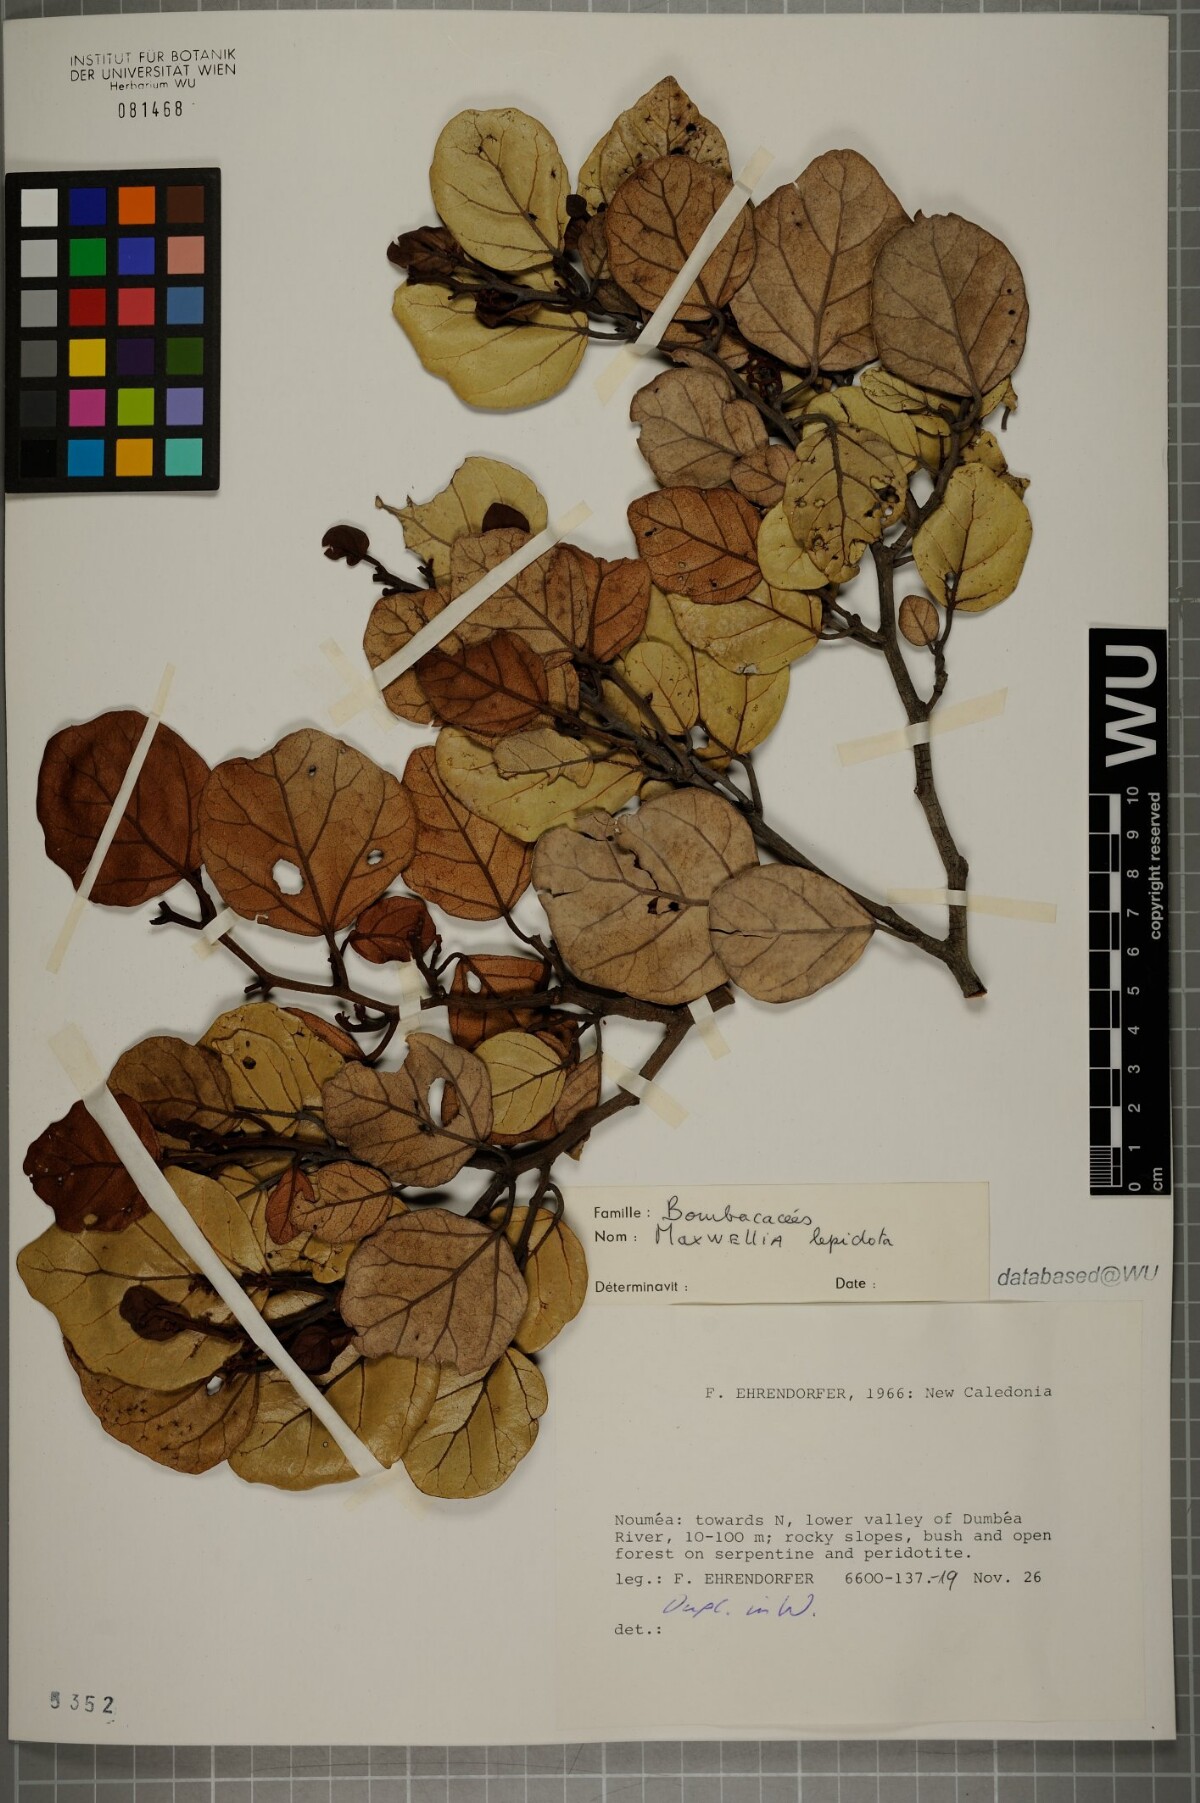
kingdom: Plantae
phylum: Tracheophyta
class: Magnoliopsida
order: Malvales
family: Malvaceae
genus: Maxwellia
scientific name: Maxwellia lepidota
